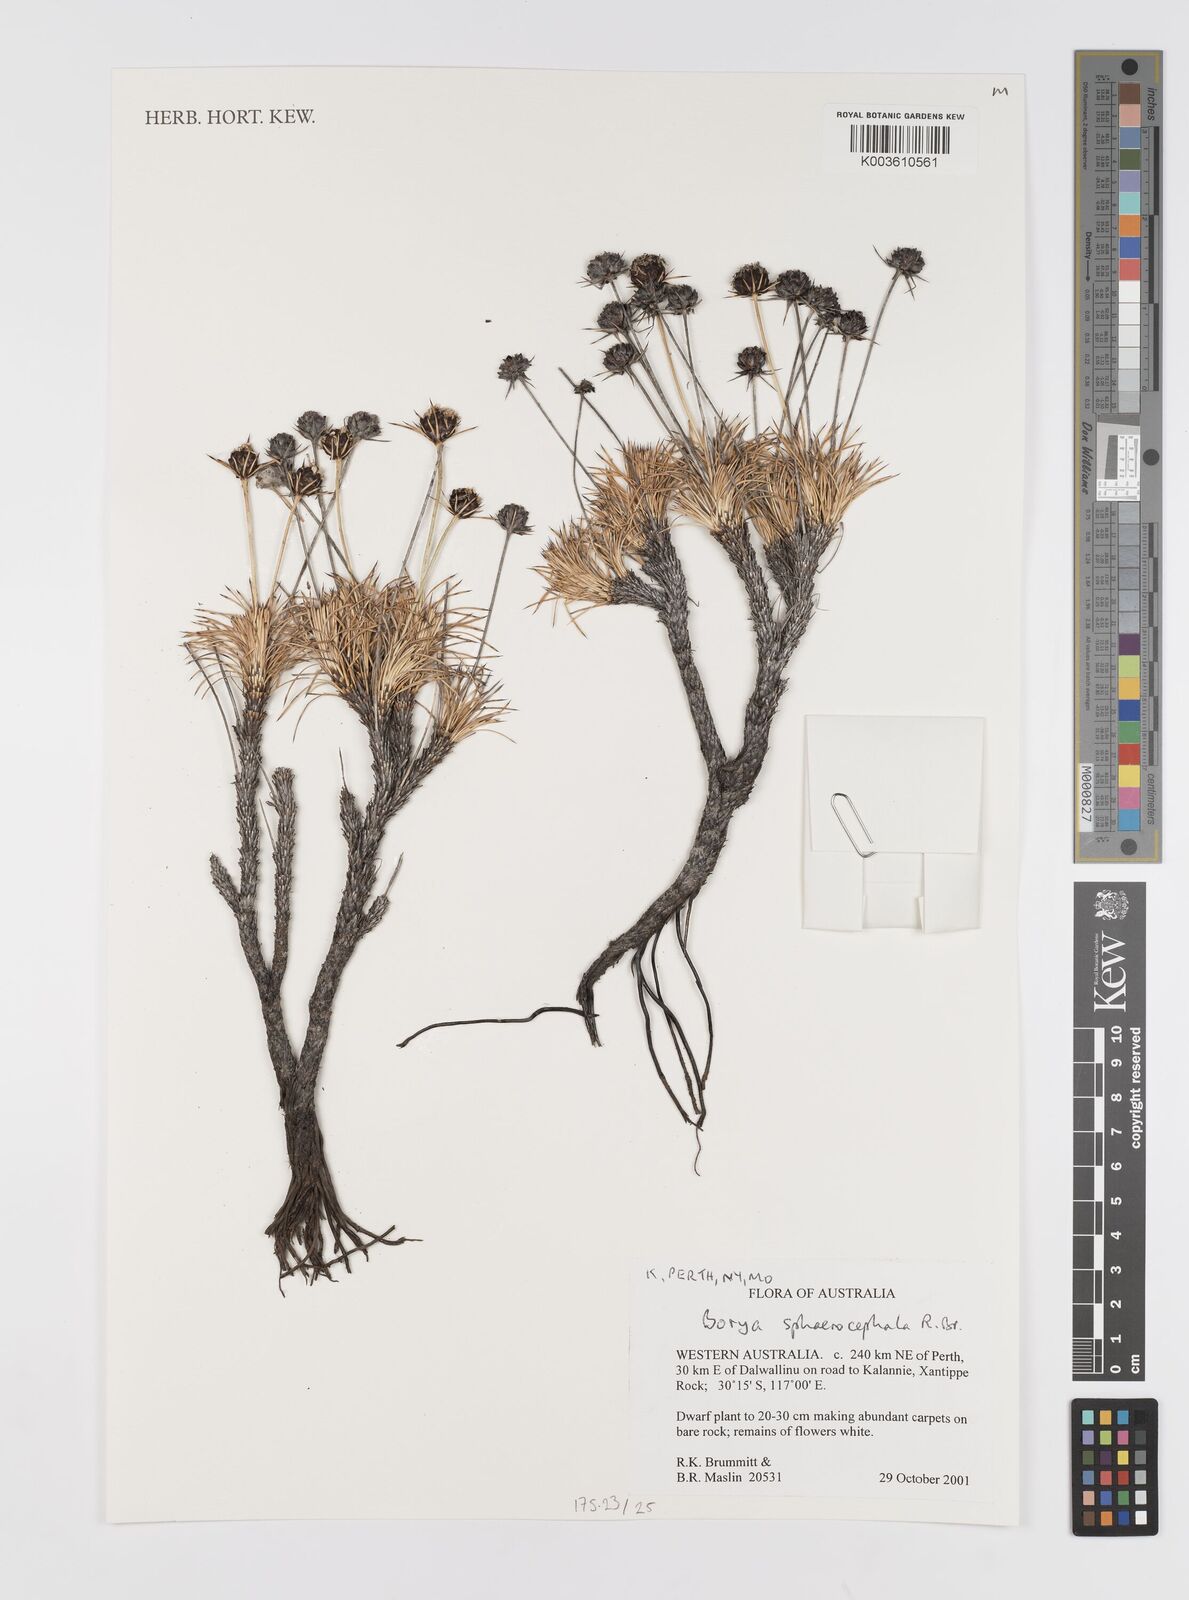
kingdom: Plantae
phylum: Tracheophyta
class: Liliopsida
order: Asparagales
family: Boryaceae
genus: Borya
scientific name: Borya sphaerocephala
